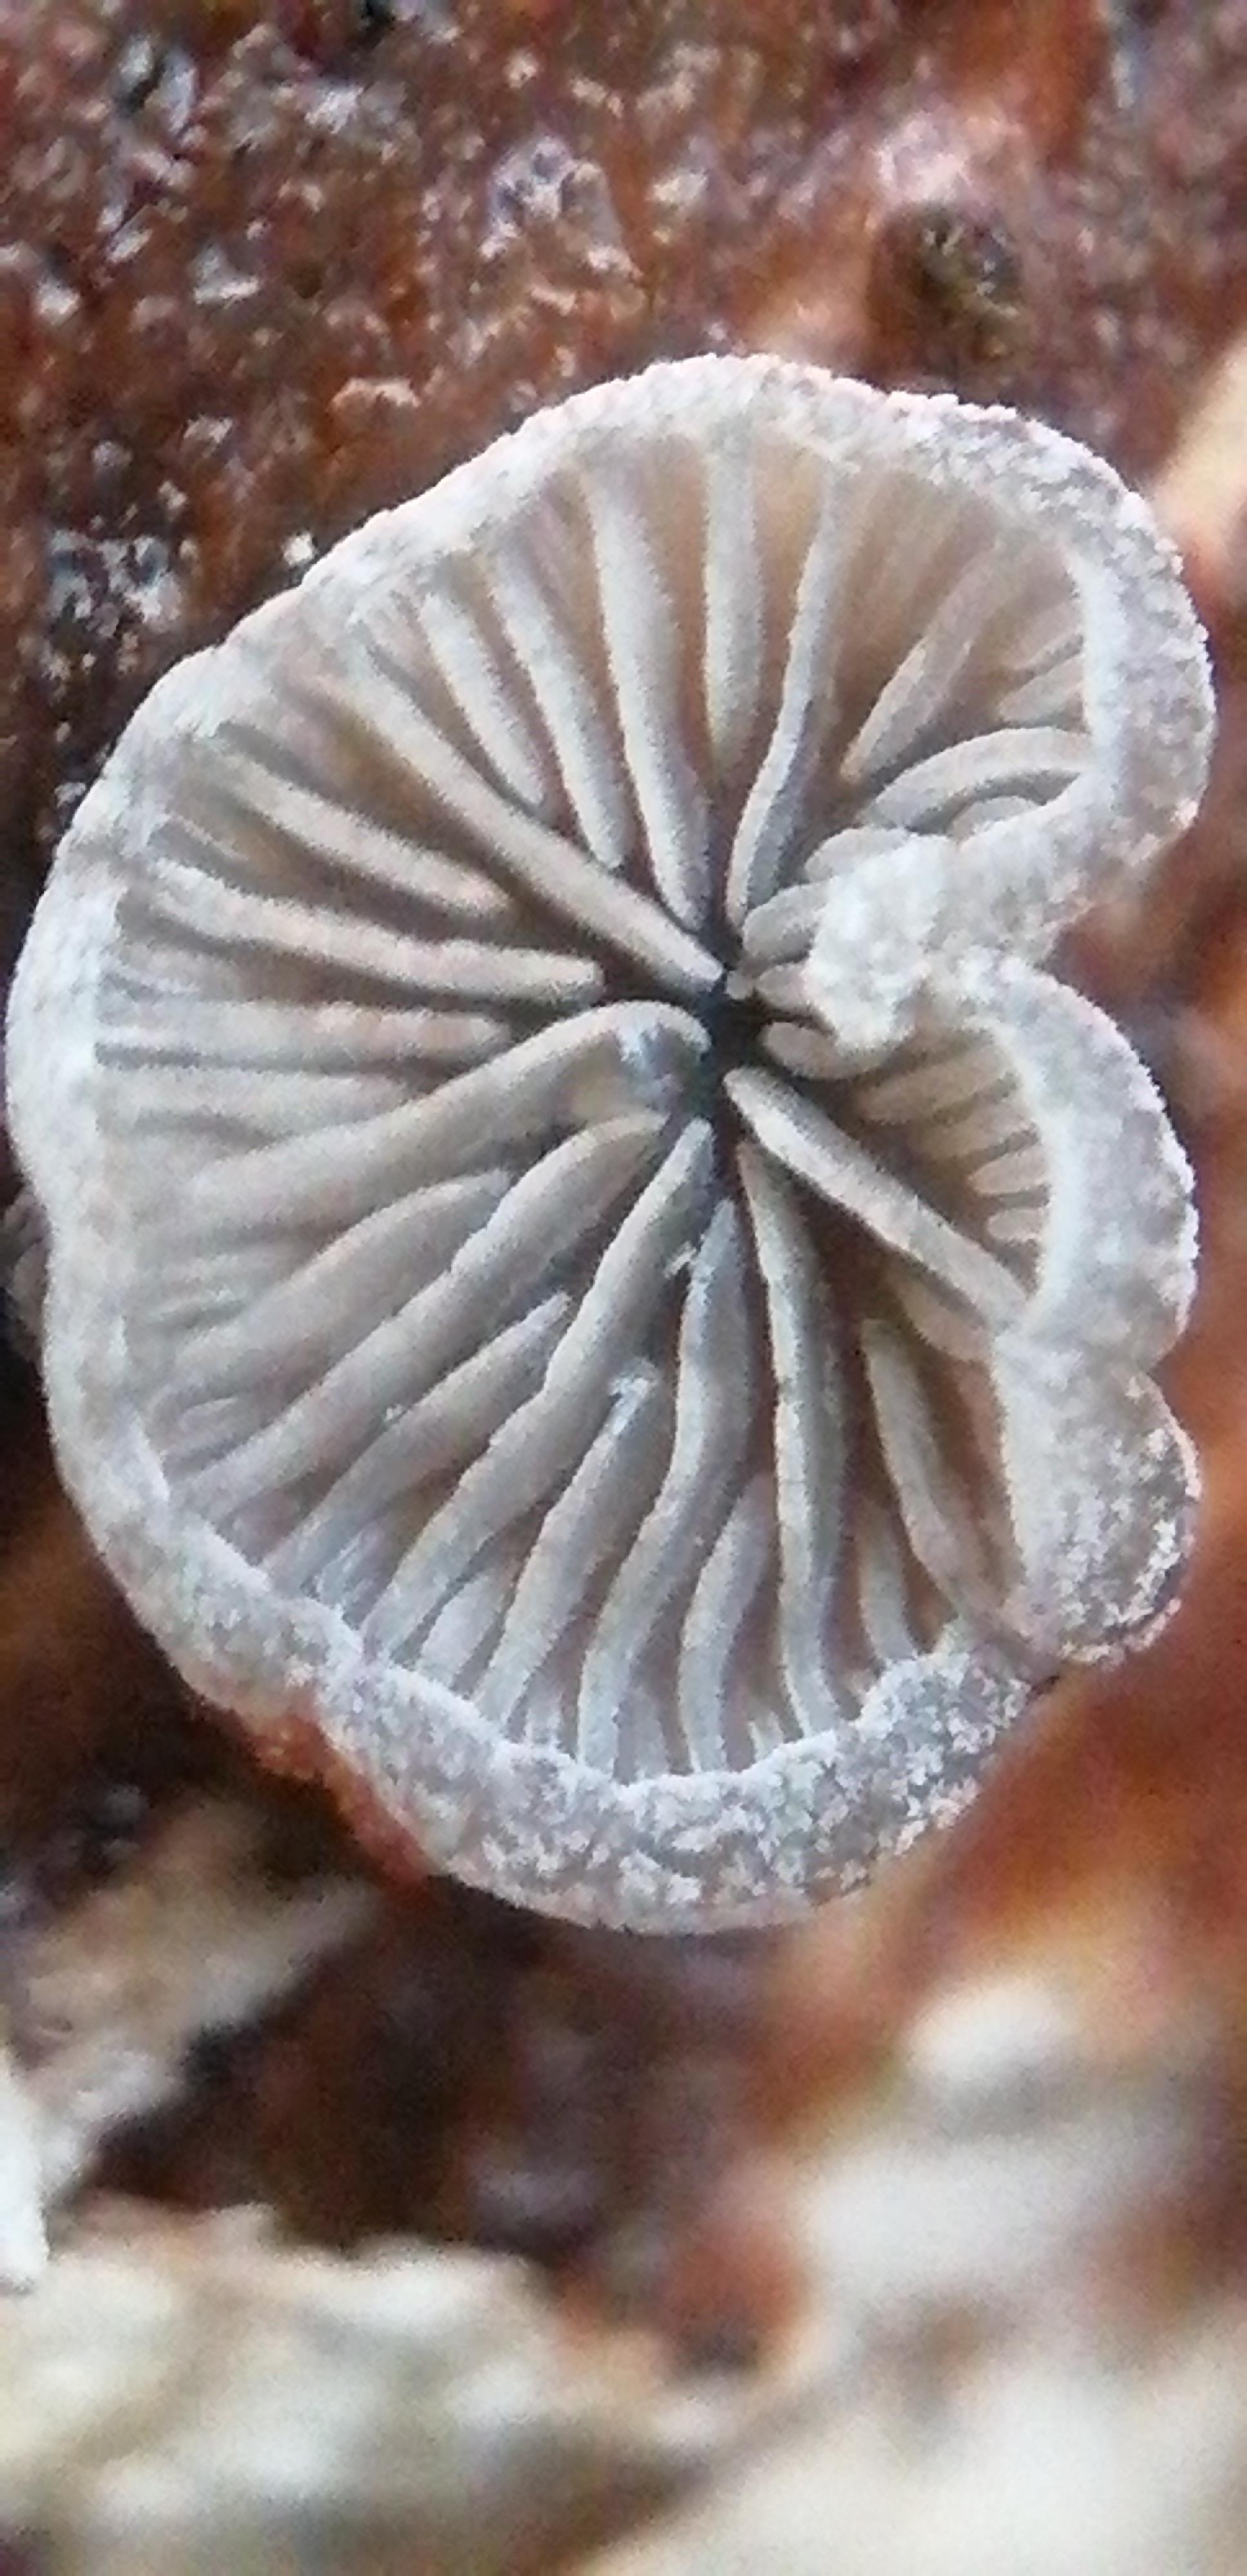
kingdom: Fungi
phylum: Basidiomycota
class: Agaricomycetes
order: Agaricales
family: Pleurotaceae
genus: Resupinatus
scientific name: Resupinatus applicatus
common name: lysfiltet barkhat
